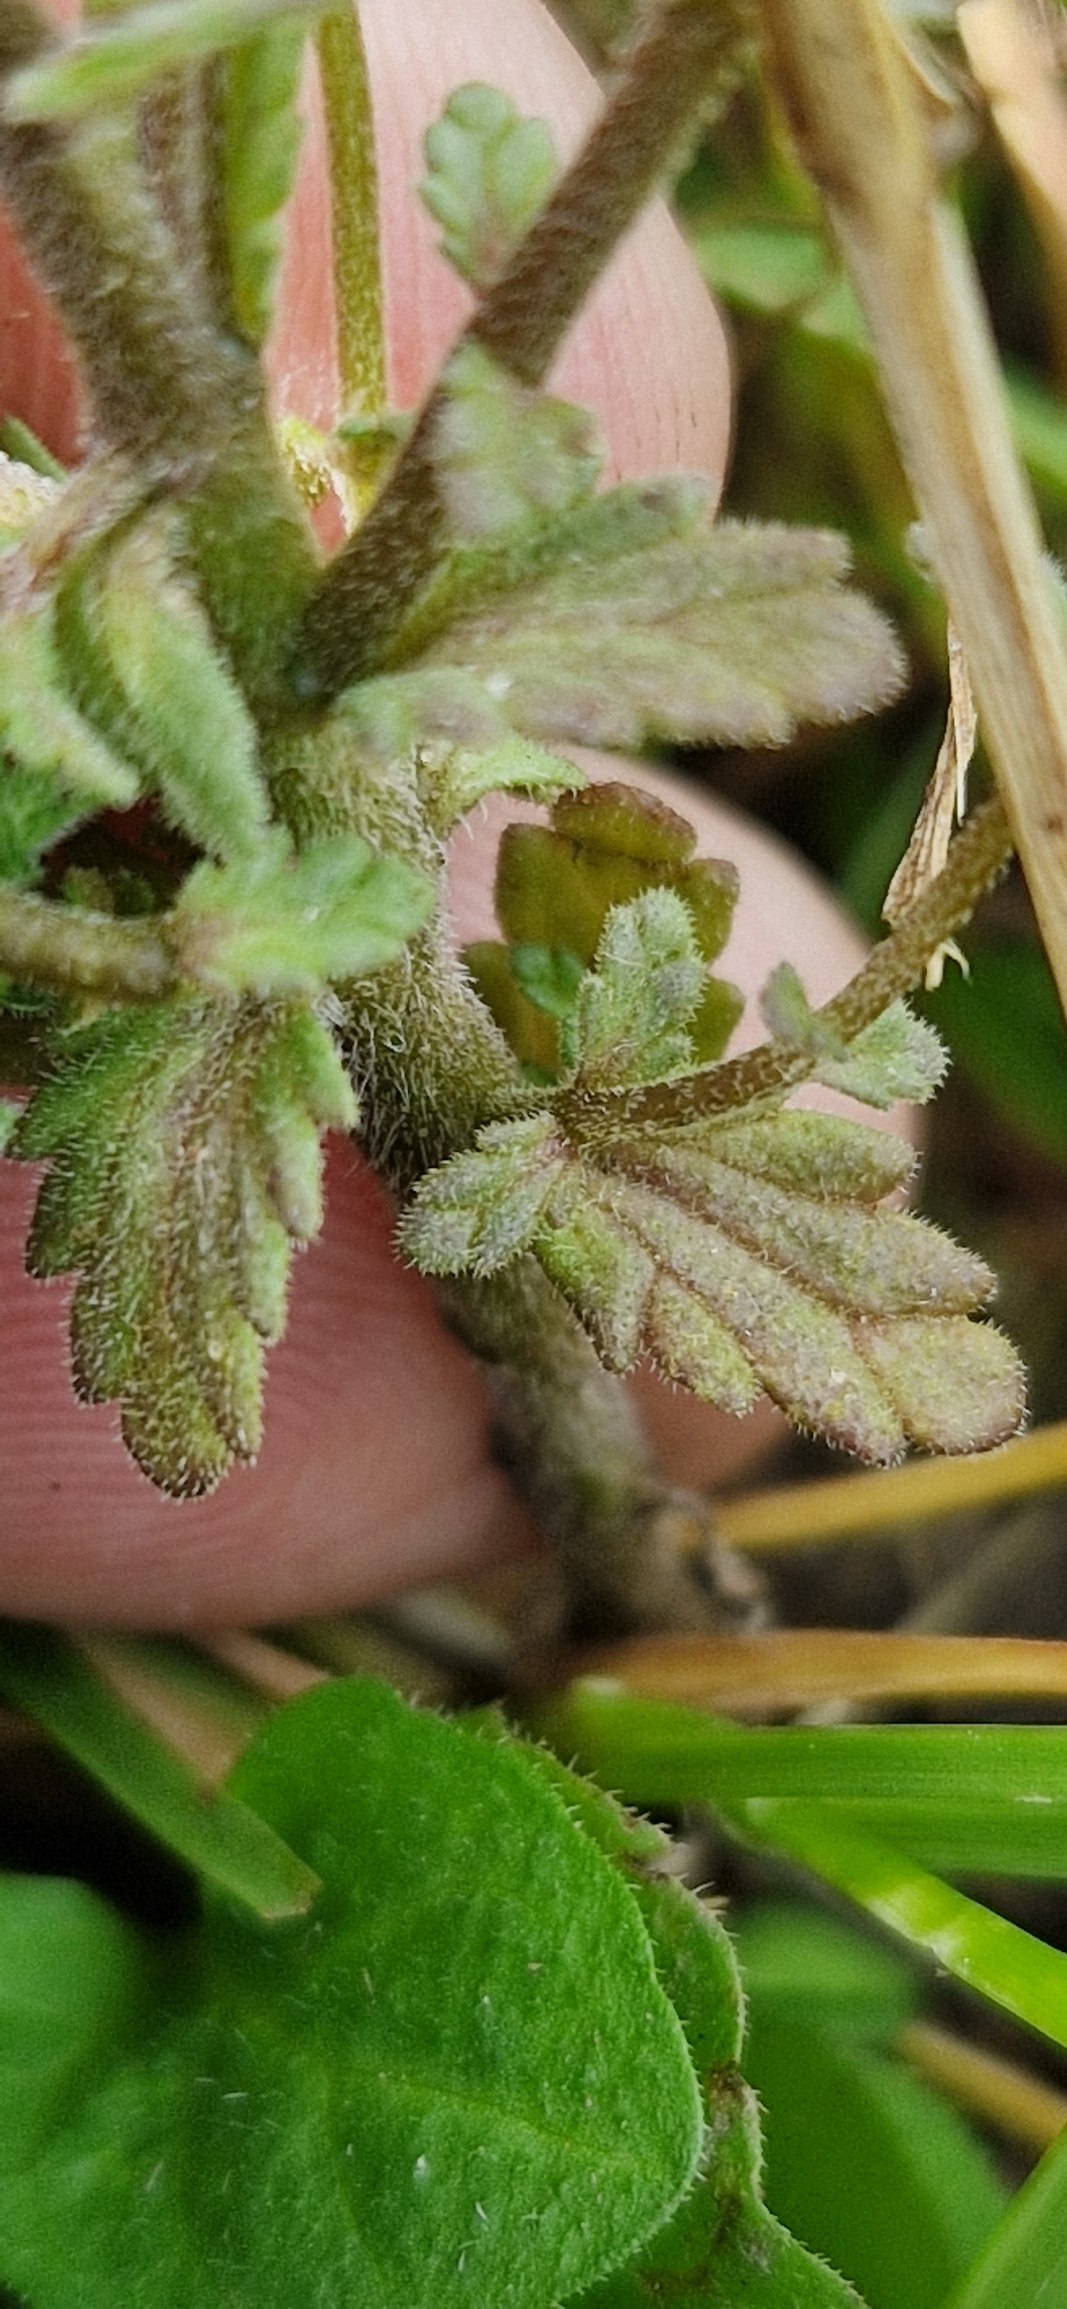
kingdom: Plantae
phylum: Tracheophyta
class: Magnoliopsida
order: Lamiales
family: Orobanchaceae
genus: Euphrasia
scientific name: Euphrasia nemorosa
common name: Kort øjentrøst
